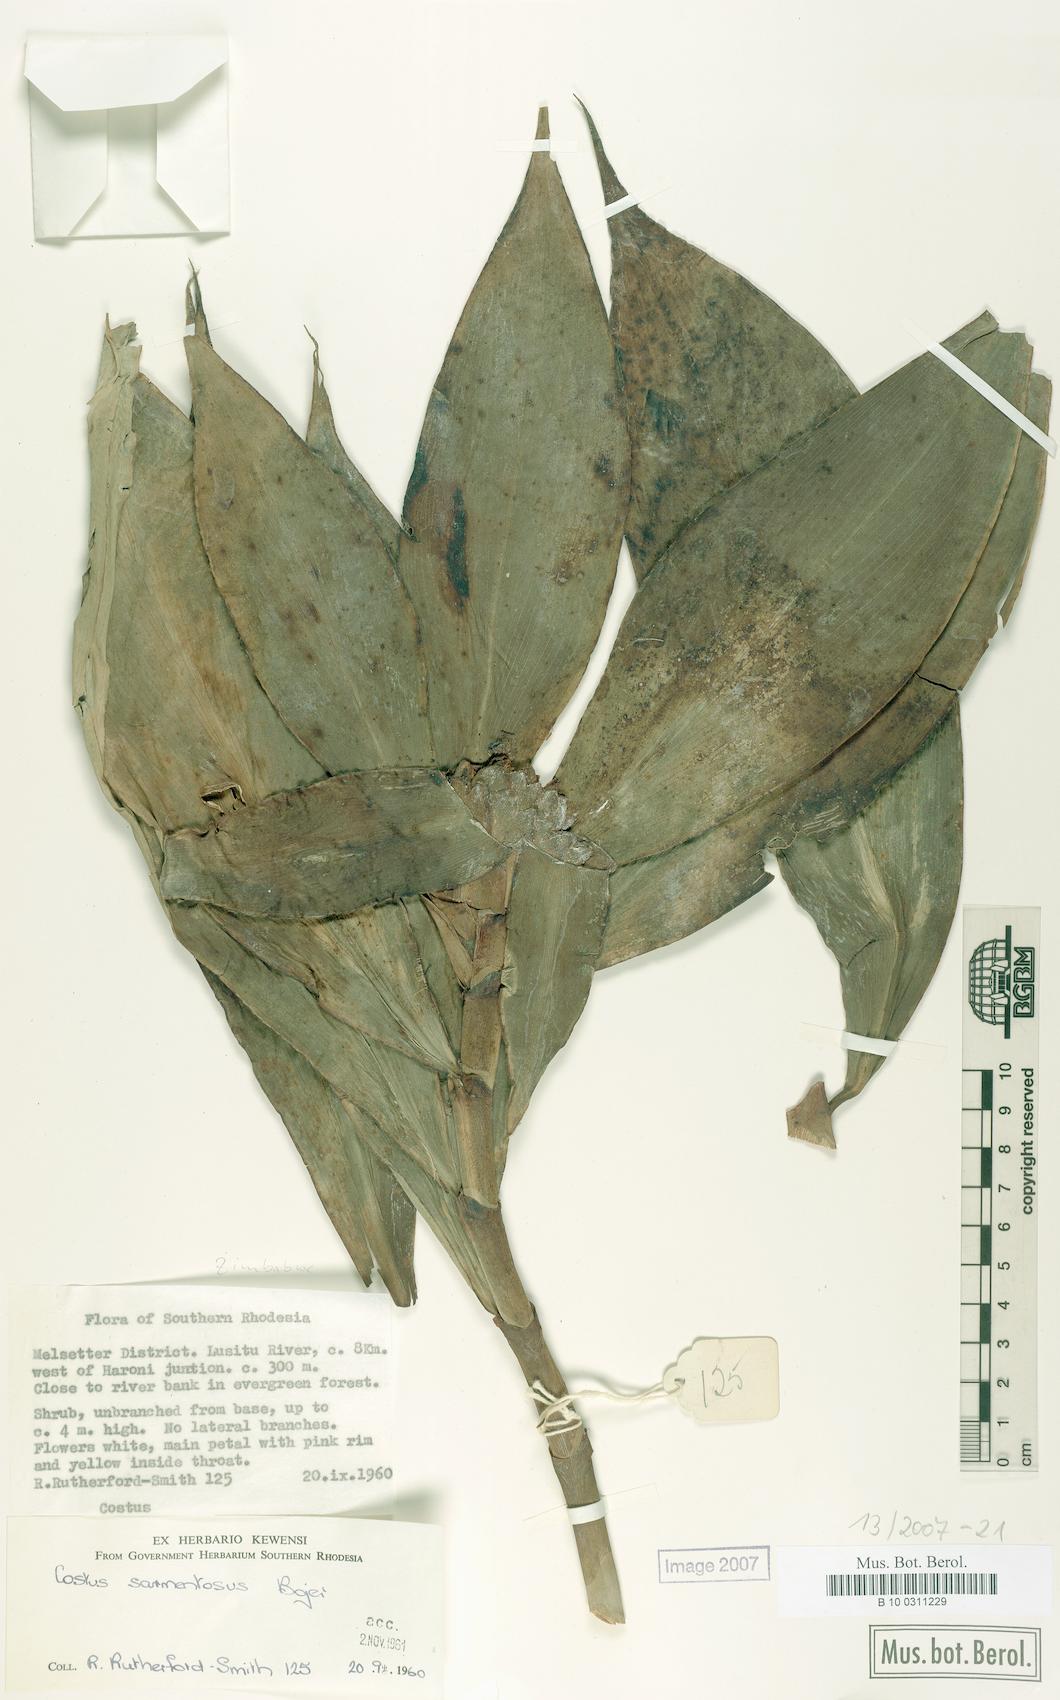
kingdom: Plantae
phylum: Tracheophyta
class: Liliopsida
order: Zingiberales
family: Costaceae
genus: Costus
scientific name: Costus afer
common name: Spiral-ginger
